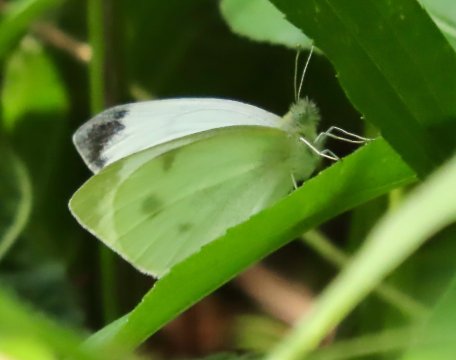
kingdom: Animalia
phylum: Arthropoda
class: Insecta
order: Lepidoptera
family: Pieridae
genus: Pieris
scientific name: Pieris rapae
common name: Cabbage White
